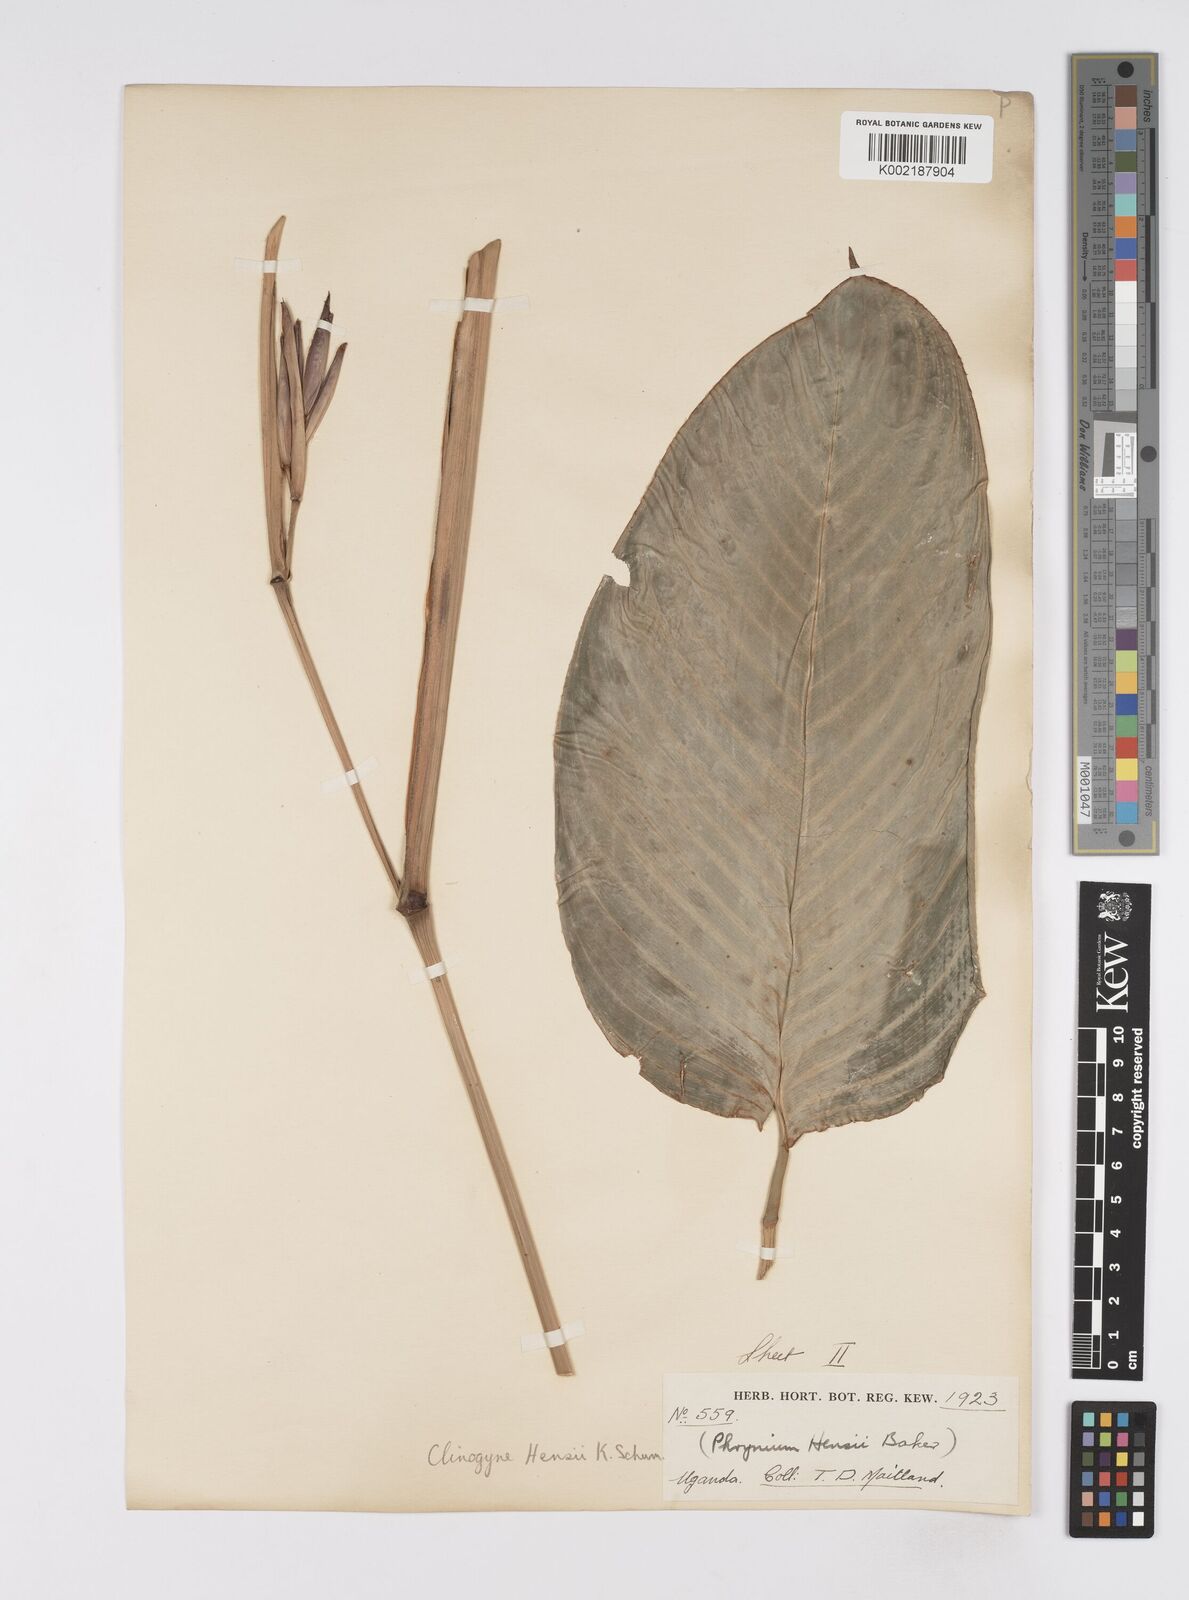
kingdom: Plantae
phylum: Tracheophyta
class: Liliopsida
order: Zingiberales
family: Marantaceae
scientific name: Marantaceae
